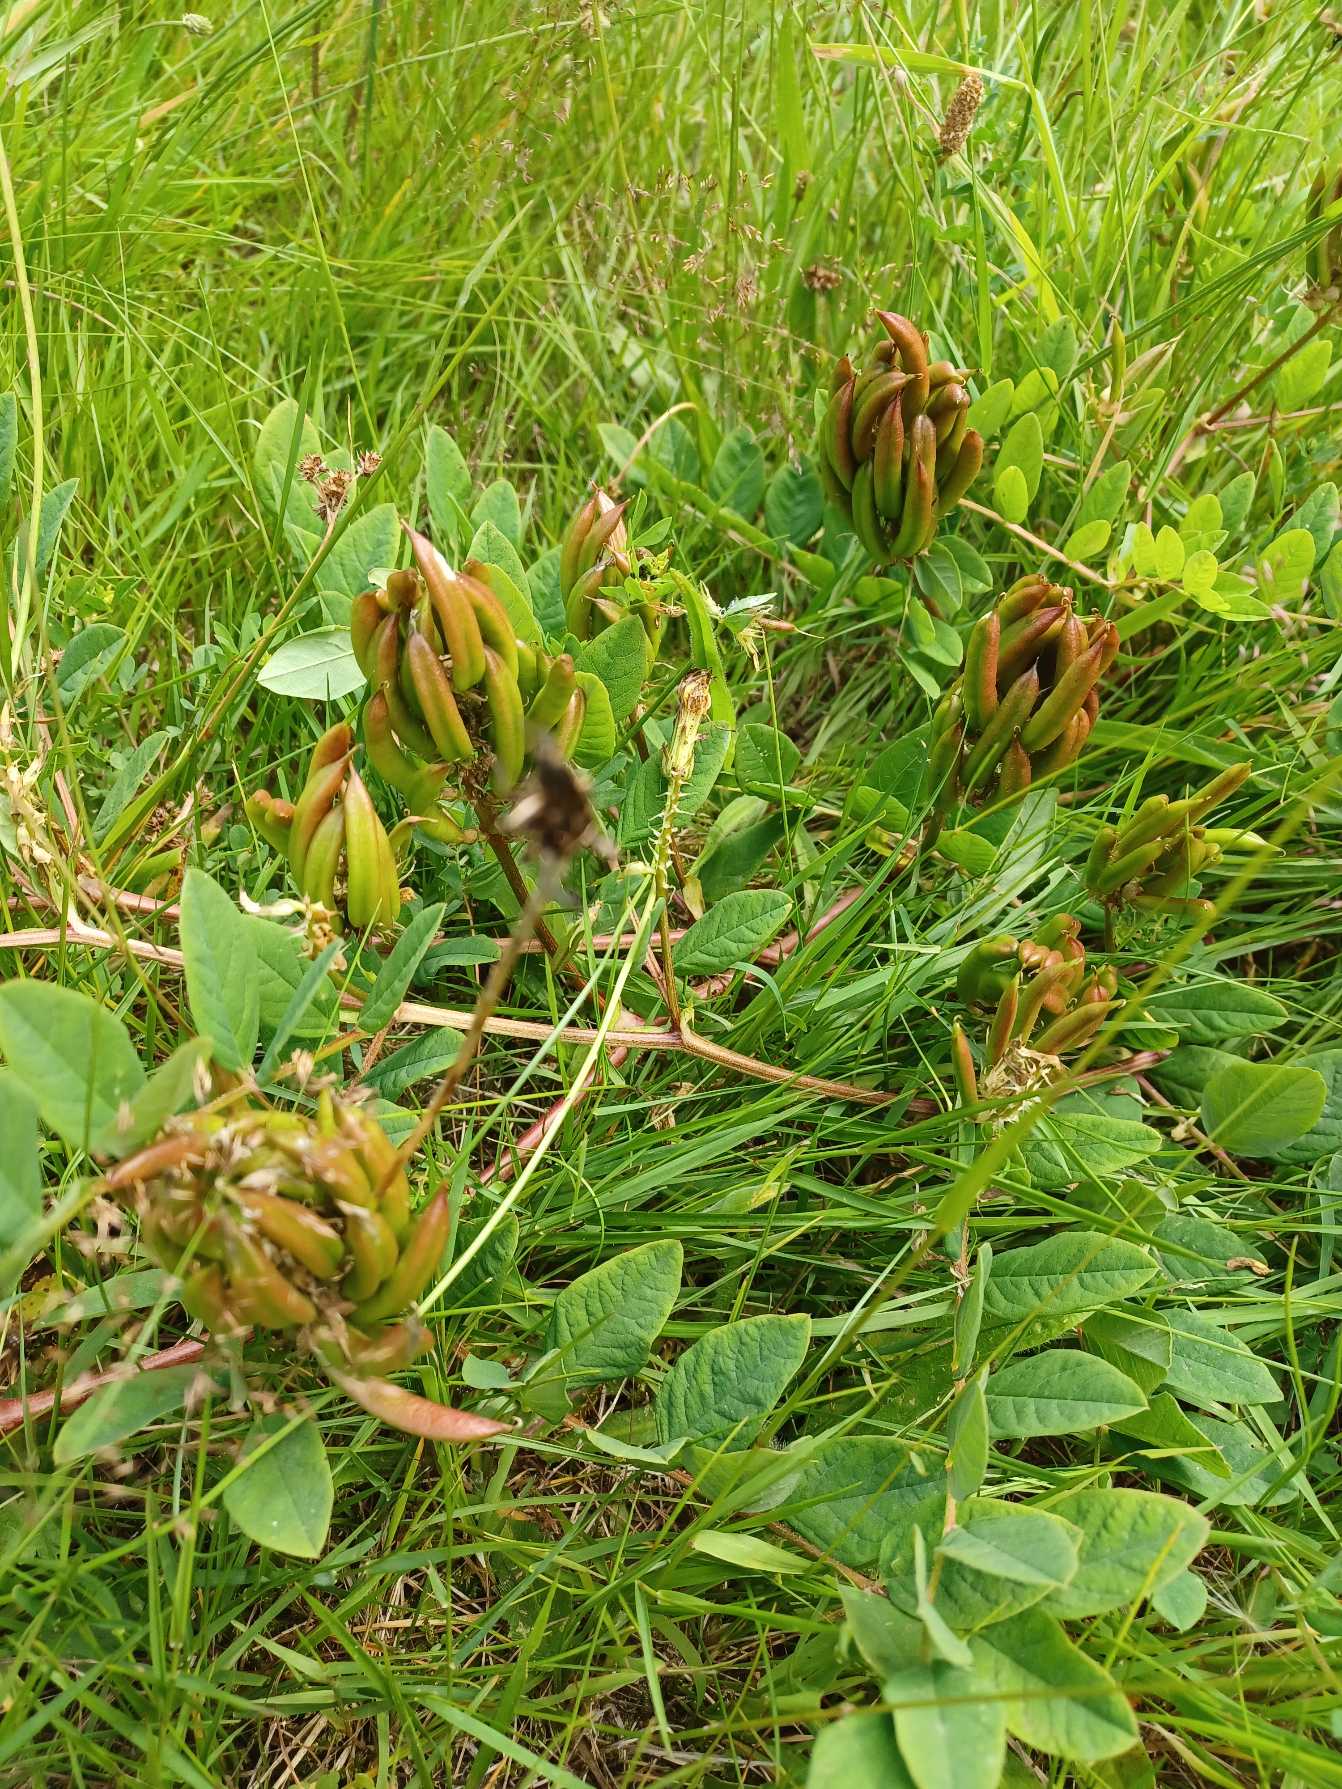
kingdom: Plantae
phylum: Tracheophyta
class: Magnoliopsida
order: Fabales
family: Fabaceae
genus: Astragalus
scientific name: Astragalus glycyphyllos
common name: Sød astragel
